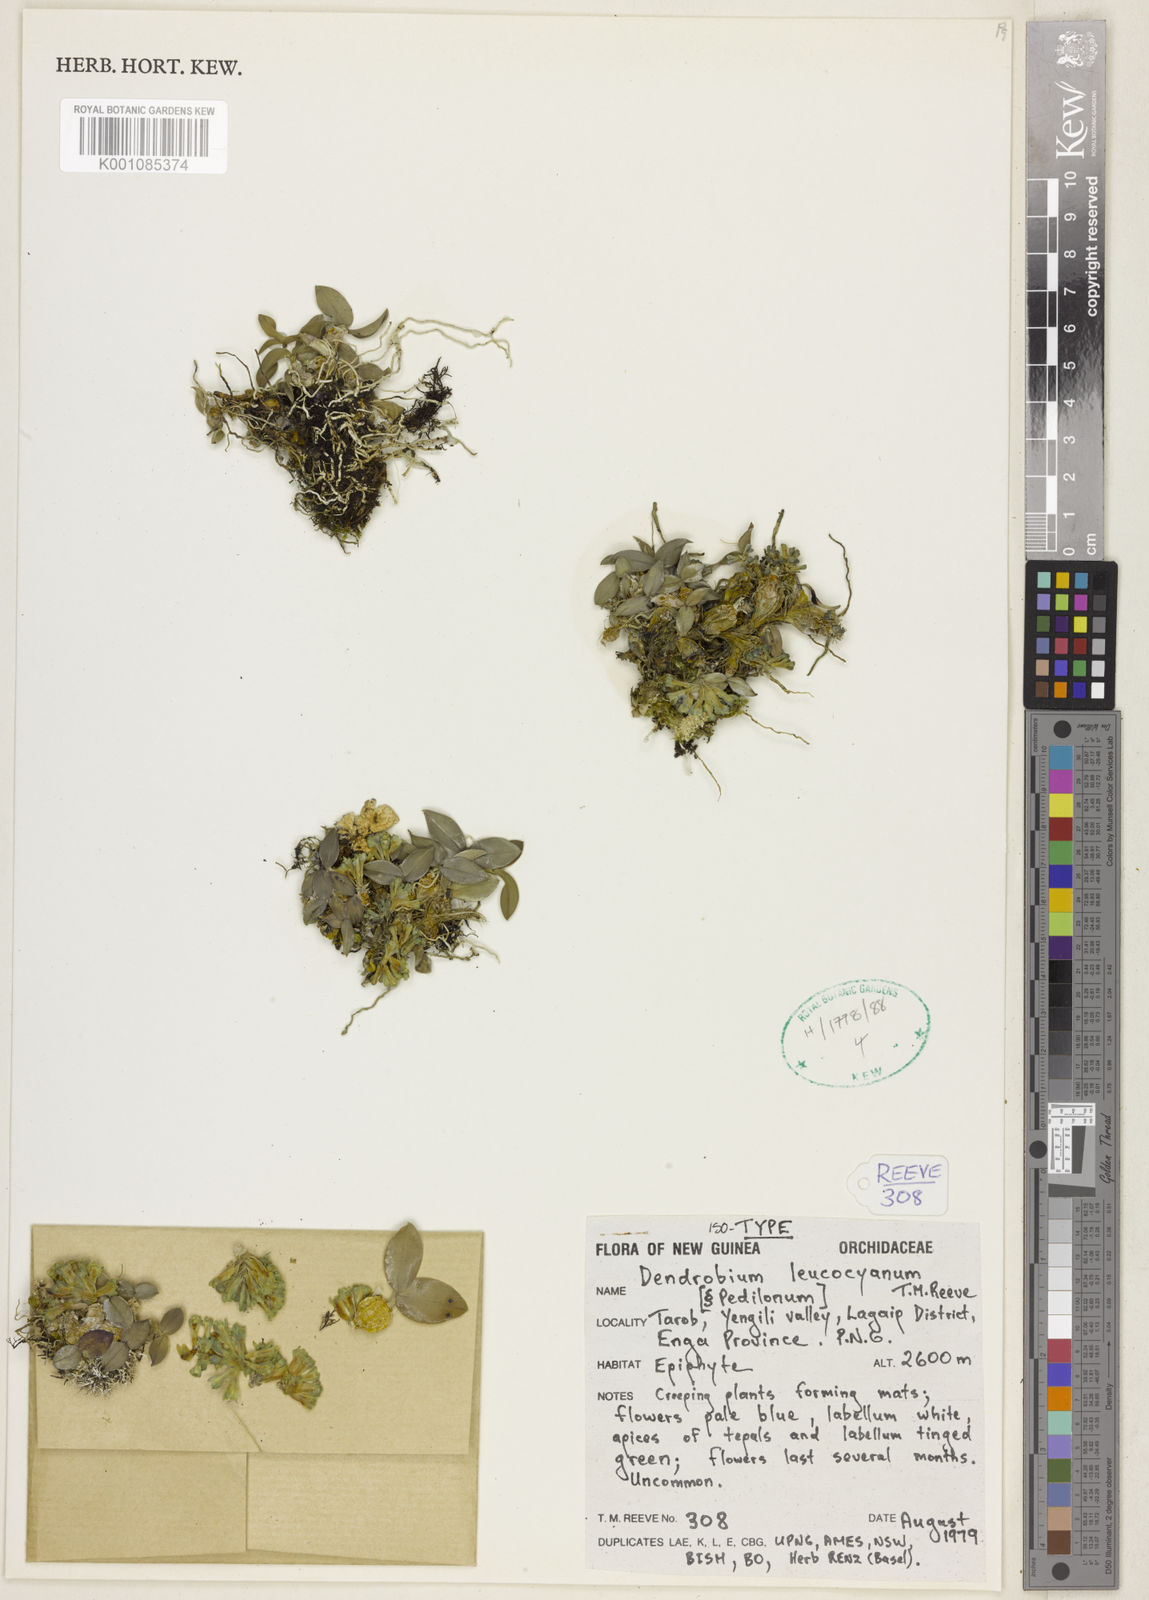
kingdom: Plantae
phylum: Tracheophyta
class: Liliopsida
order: Asparagales
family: Orchidaceae
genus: Dendrobium
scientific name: Dendrobium juncoideum
